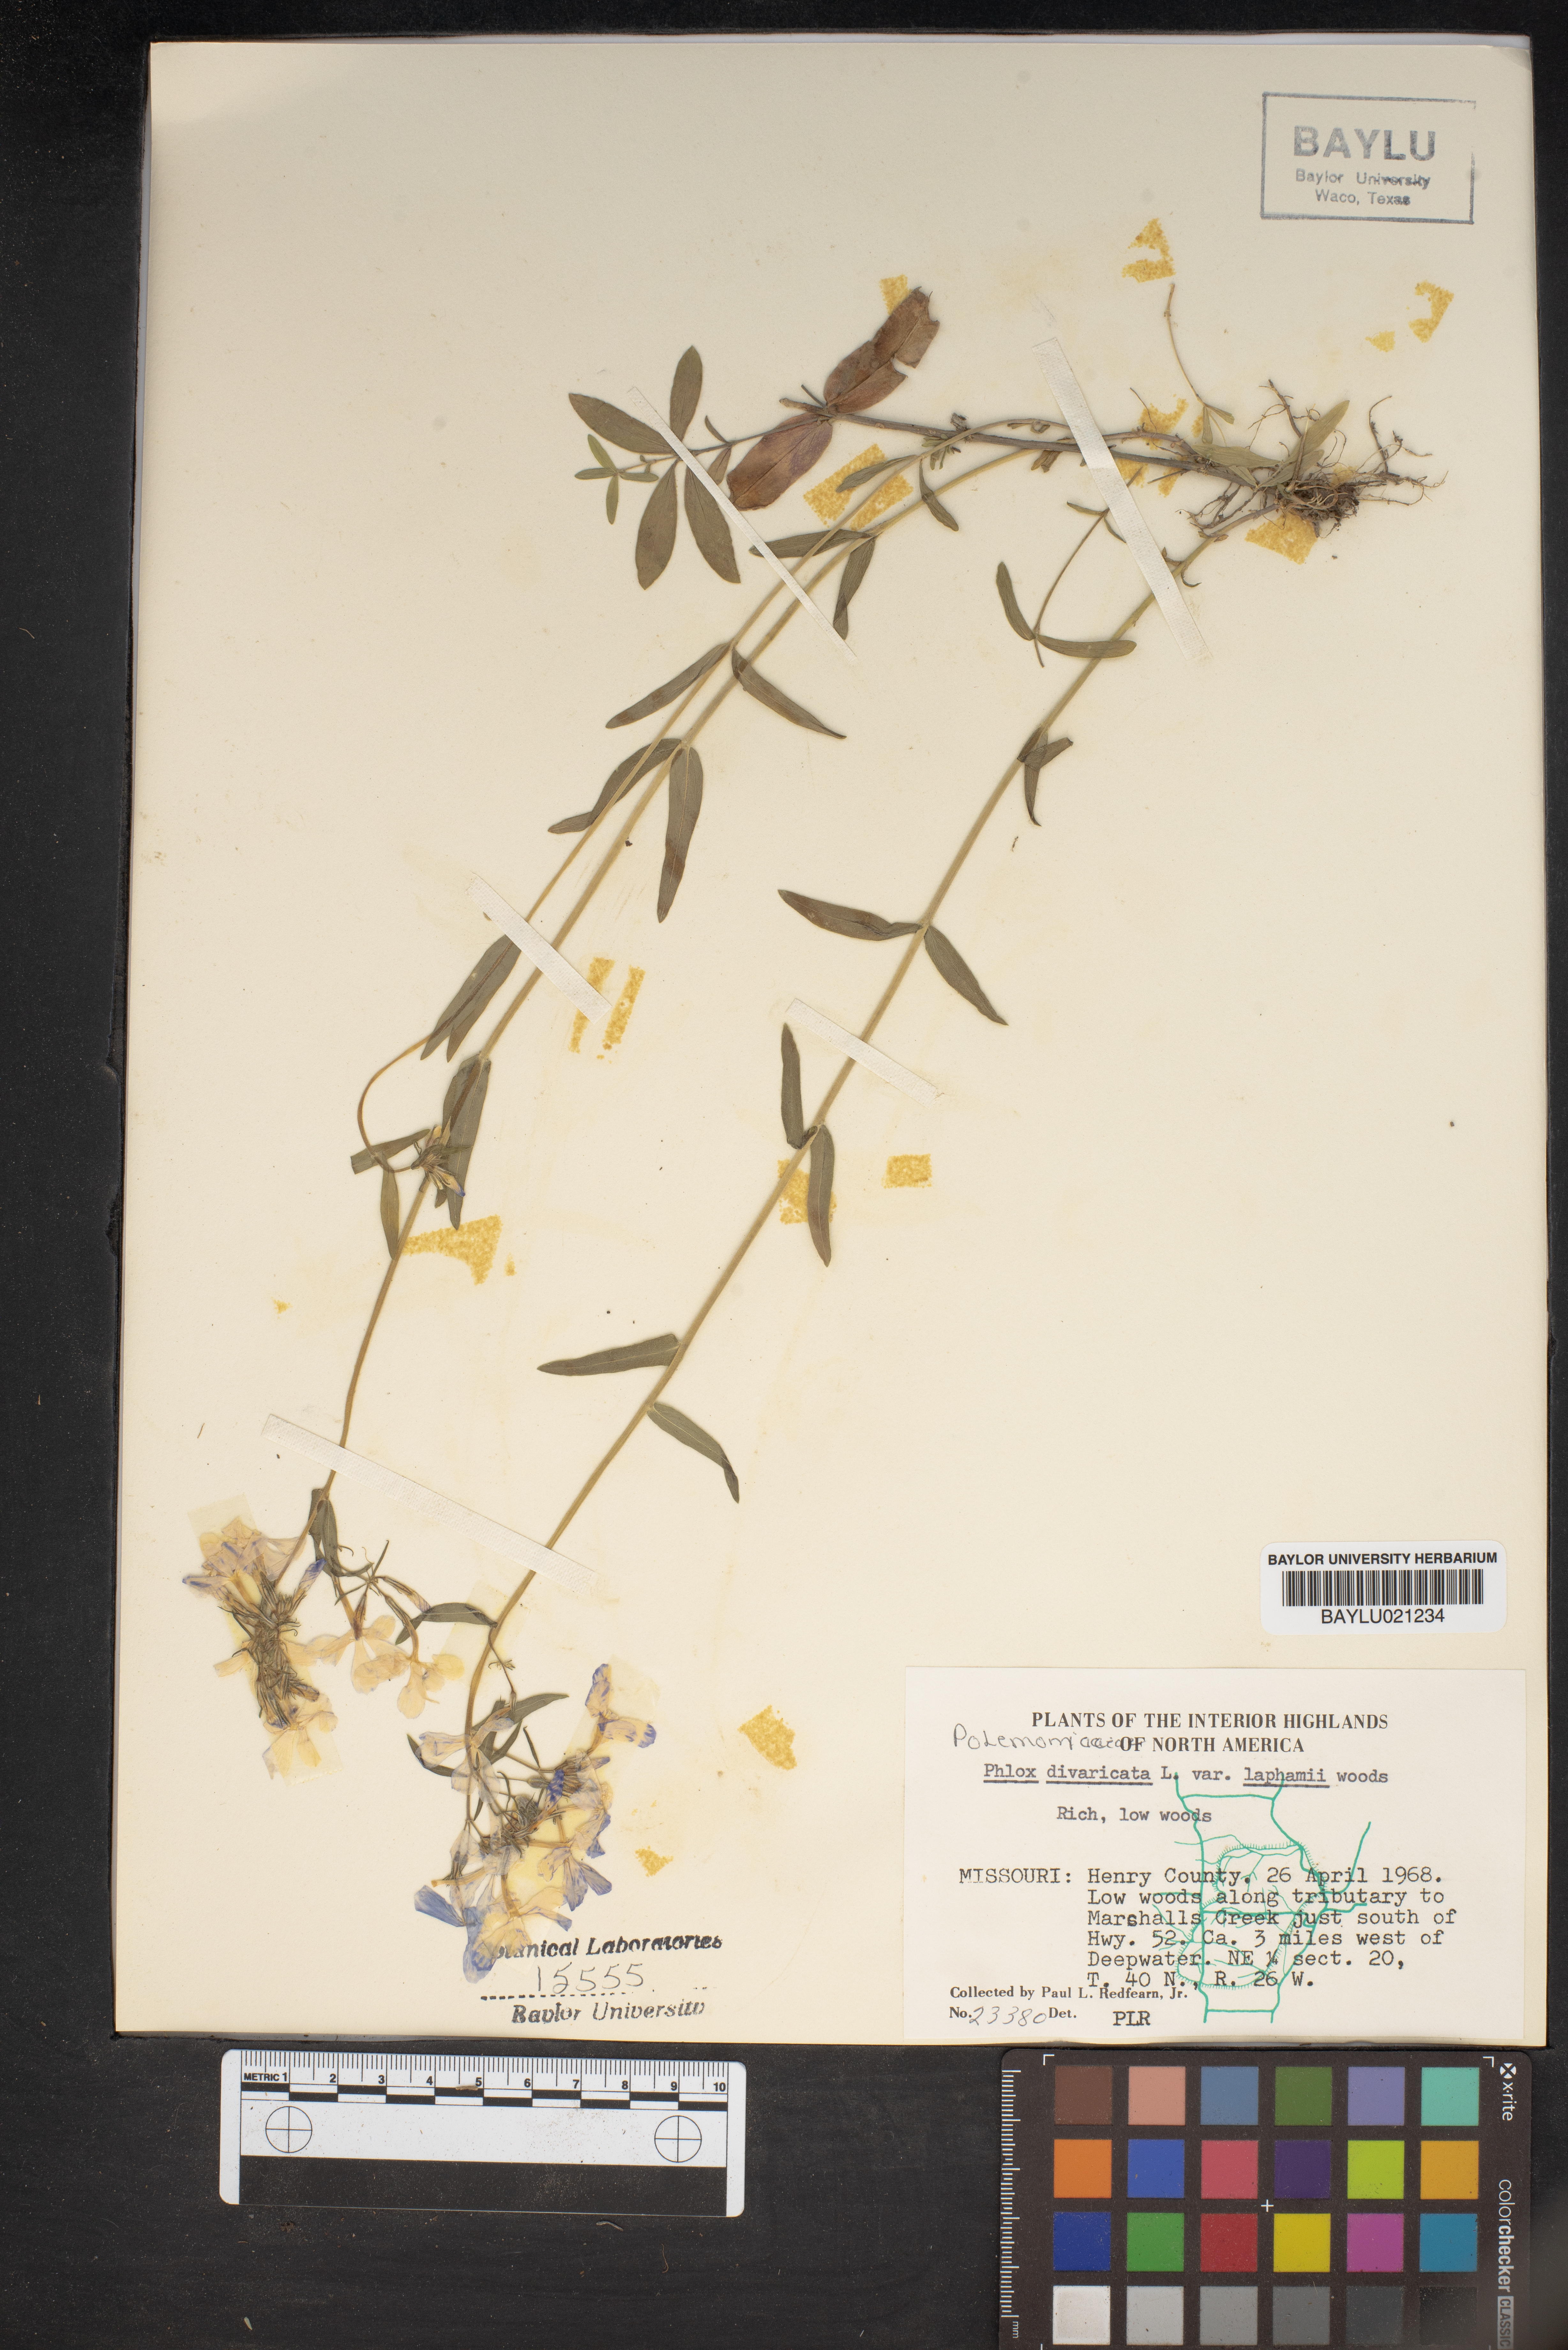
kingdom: Plantae
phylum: Tracheophyta
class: Magnoliopsida
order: Ericales
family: Polemoniaceae
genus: Phlox
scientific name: Phlox divaricata
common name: Blue phlox
